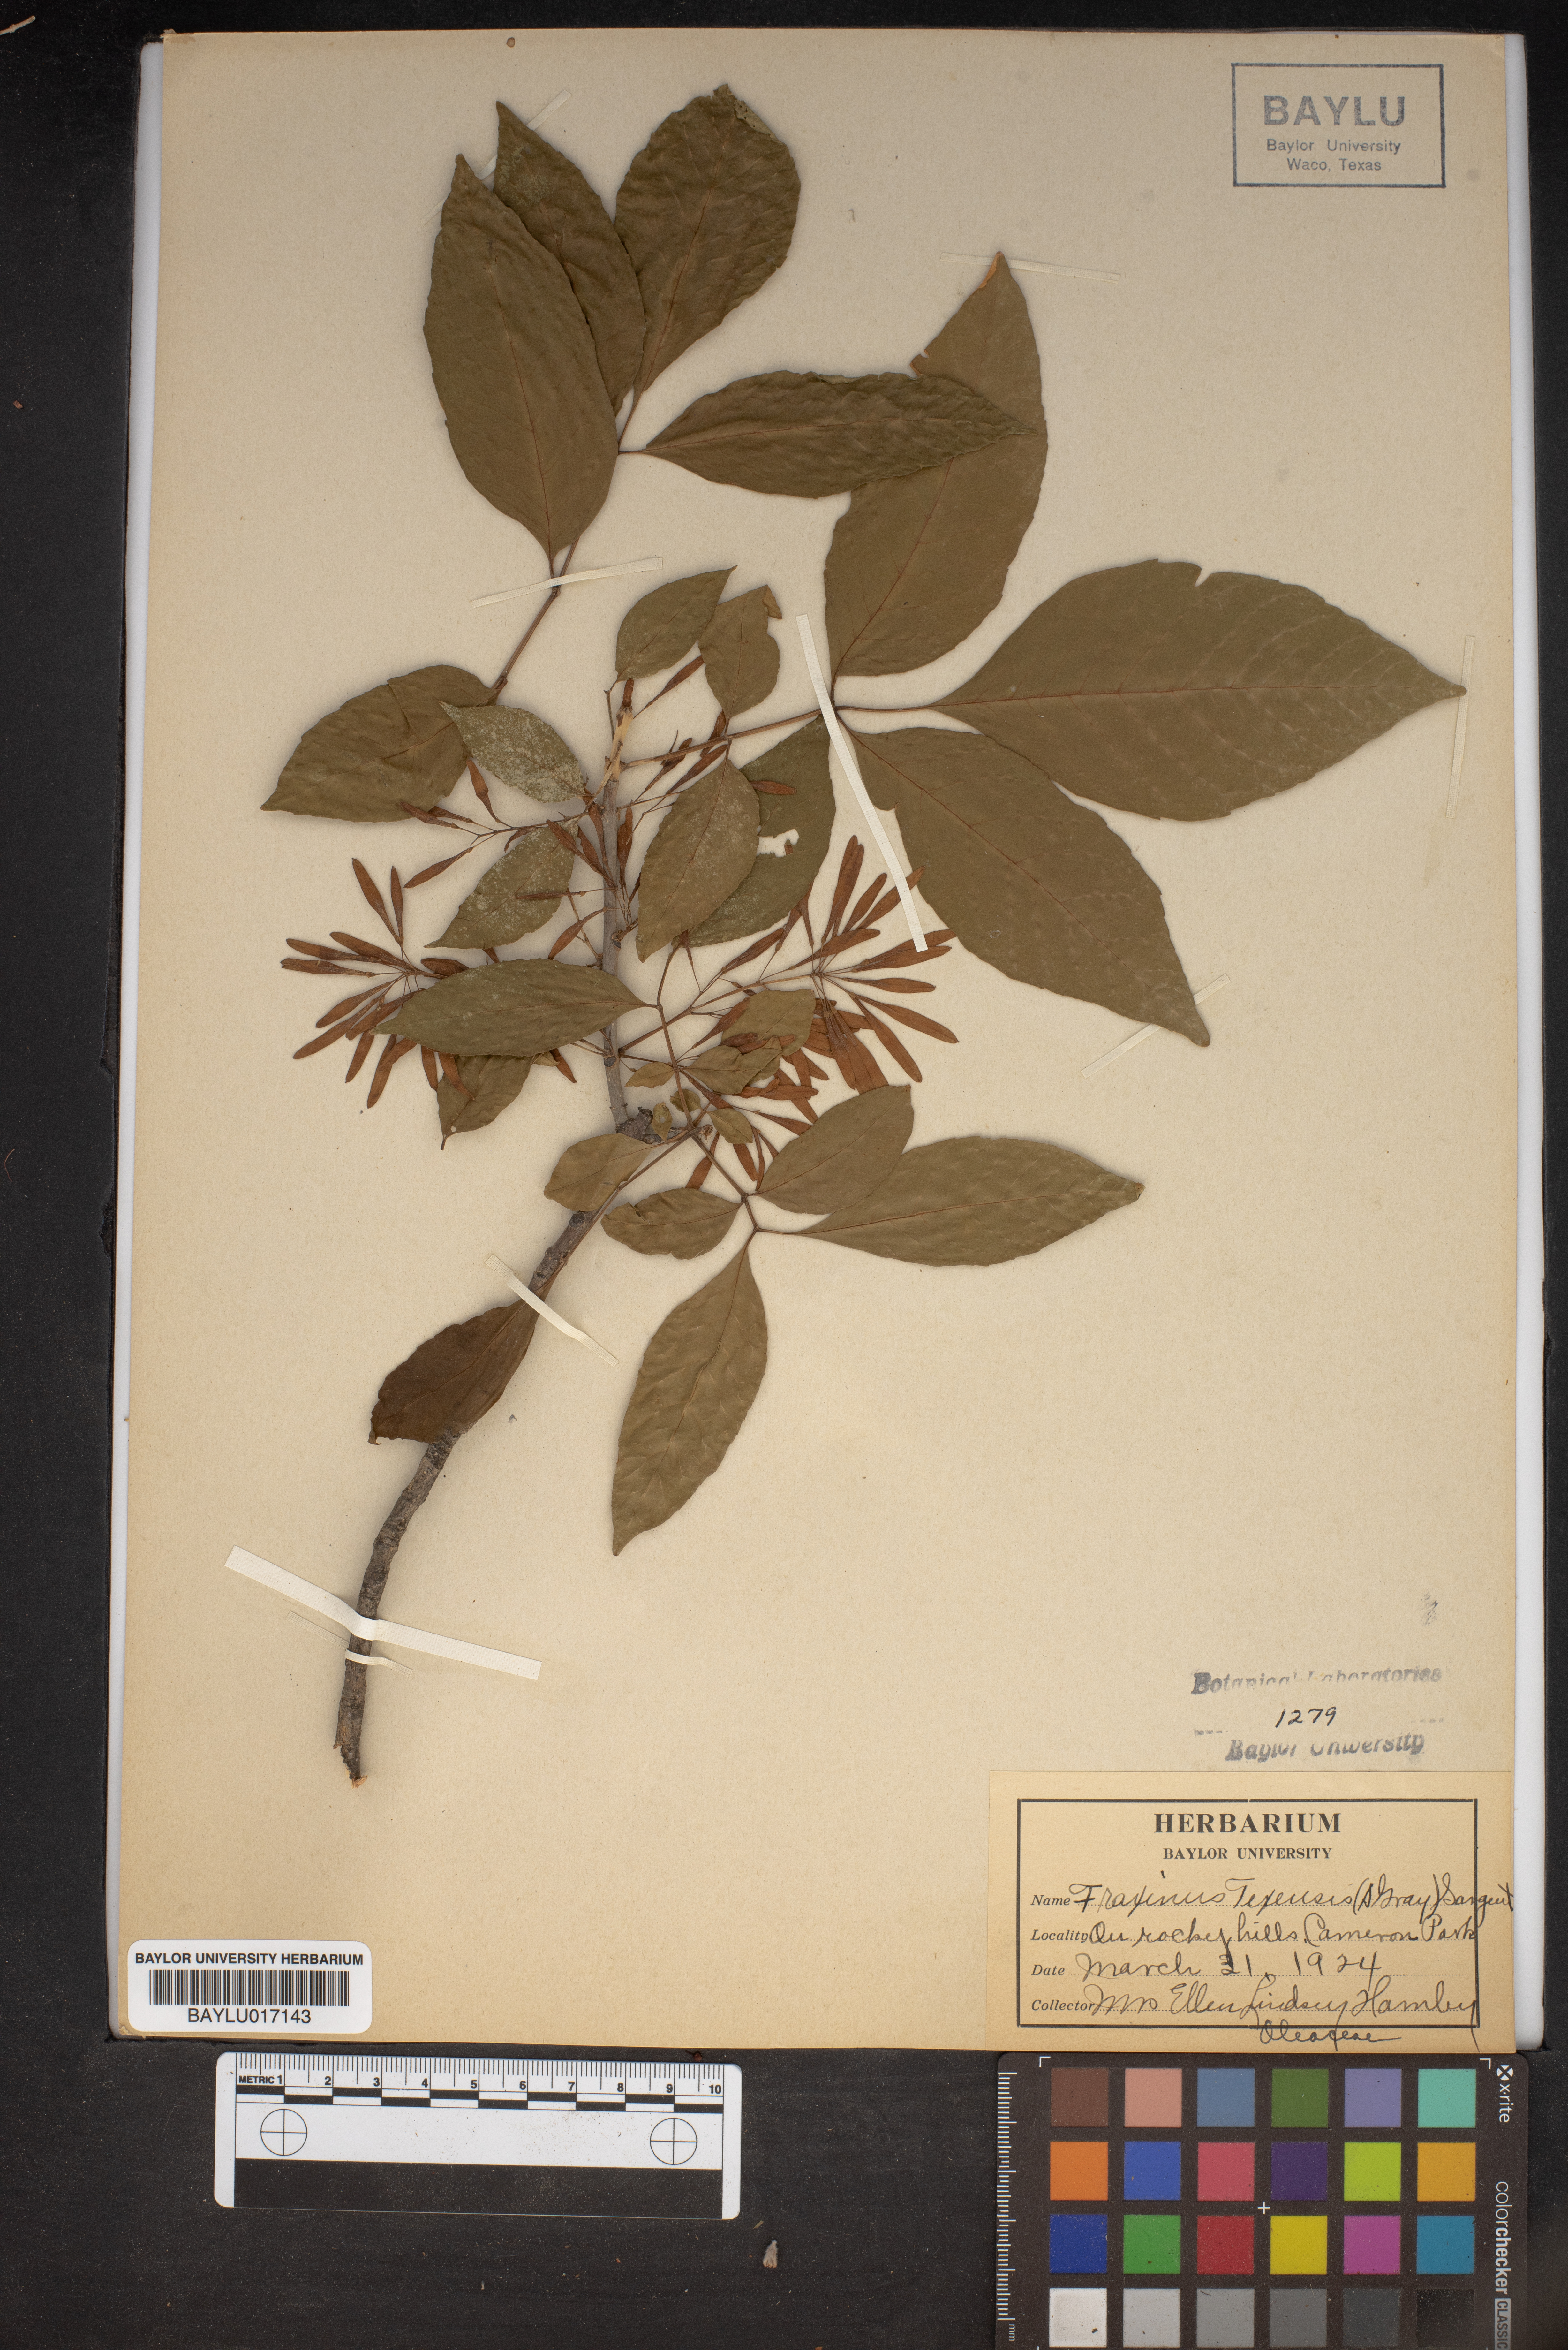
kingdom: Plantae
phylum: Tracheophyta
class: Magnoliopsida
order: Lamiales
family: Oleaceae
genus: Fraxinus
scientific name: Fraxinus albicans
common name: Texas ash
